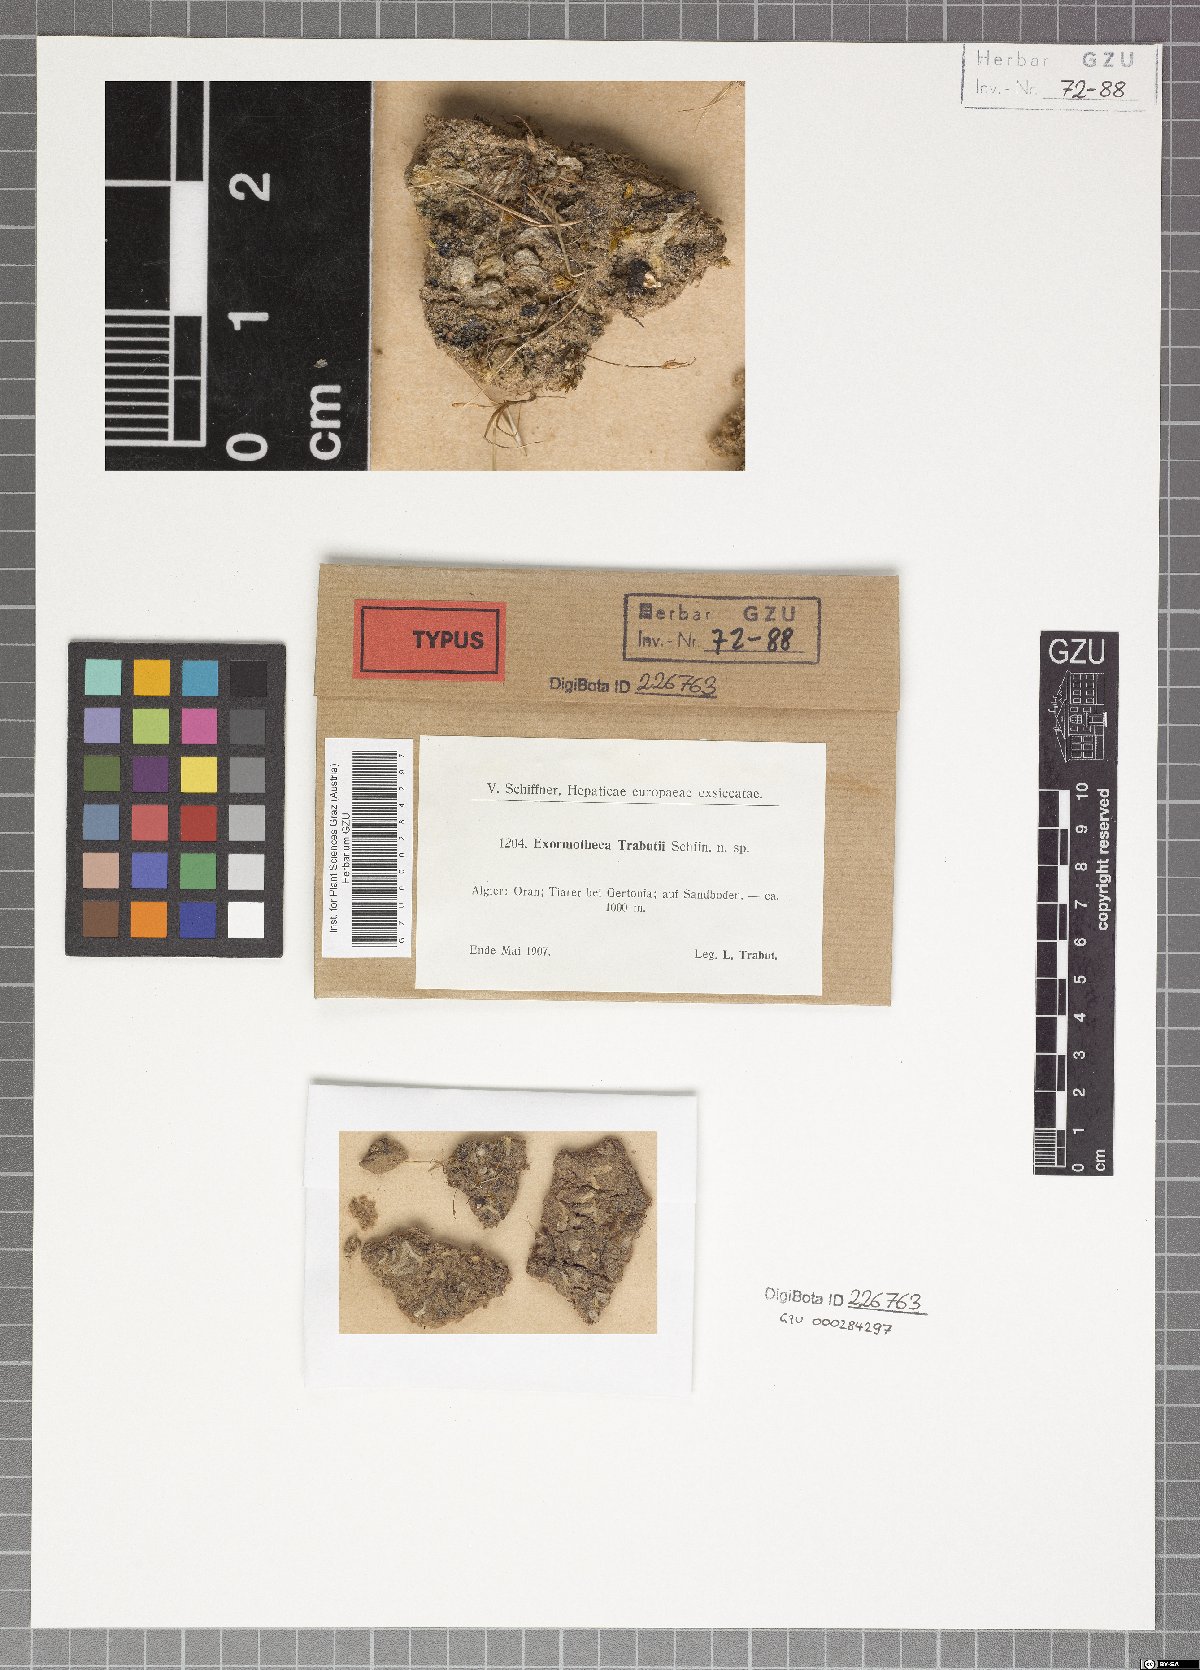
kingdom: Plantae
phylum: Marchantiophyta
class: Marchantiopsida
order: Marchantiales
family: Marchantiaceae
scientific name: Marchantiaceae
